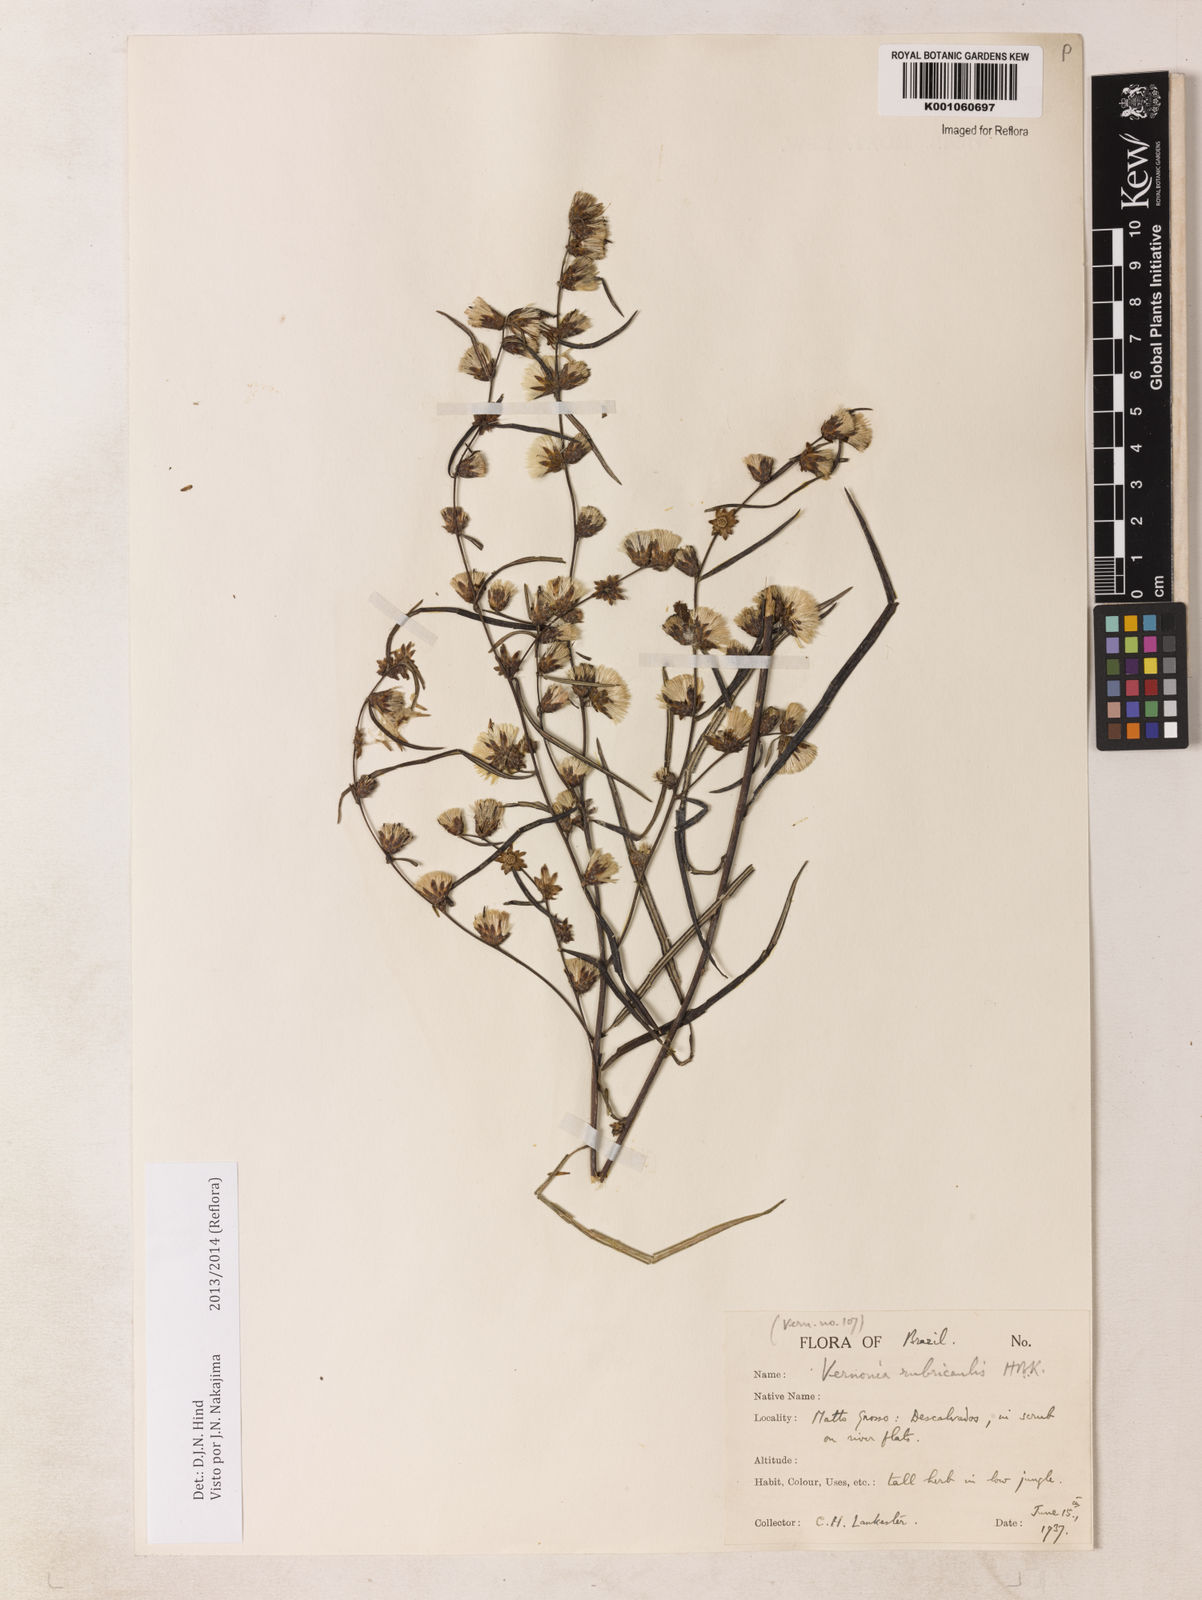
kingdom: Plantae
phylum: Tracheophyta
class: Magnoliopsida
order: Asterales
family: Asteraceae
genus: Lessingianthus
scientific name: Lessingianthus rubricaulis
